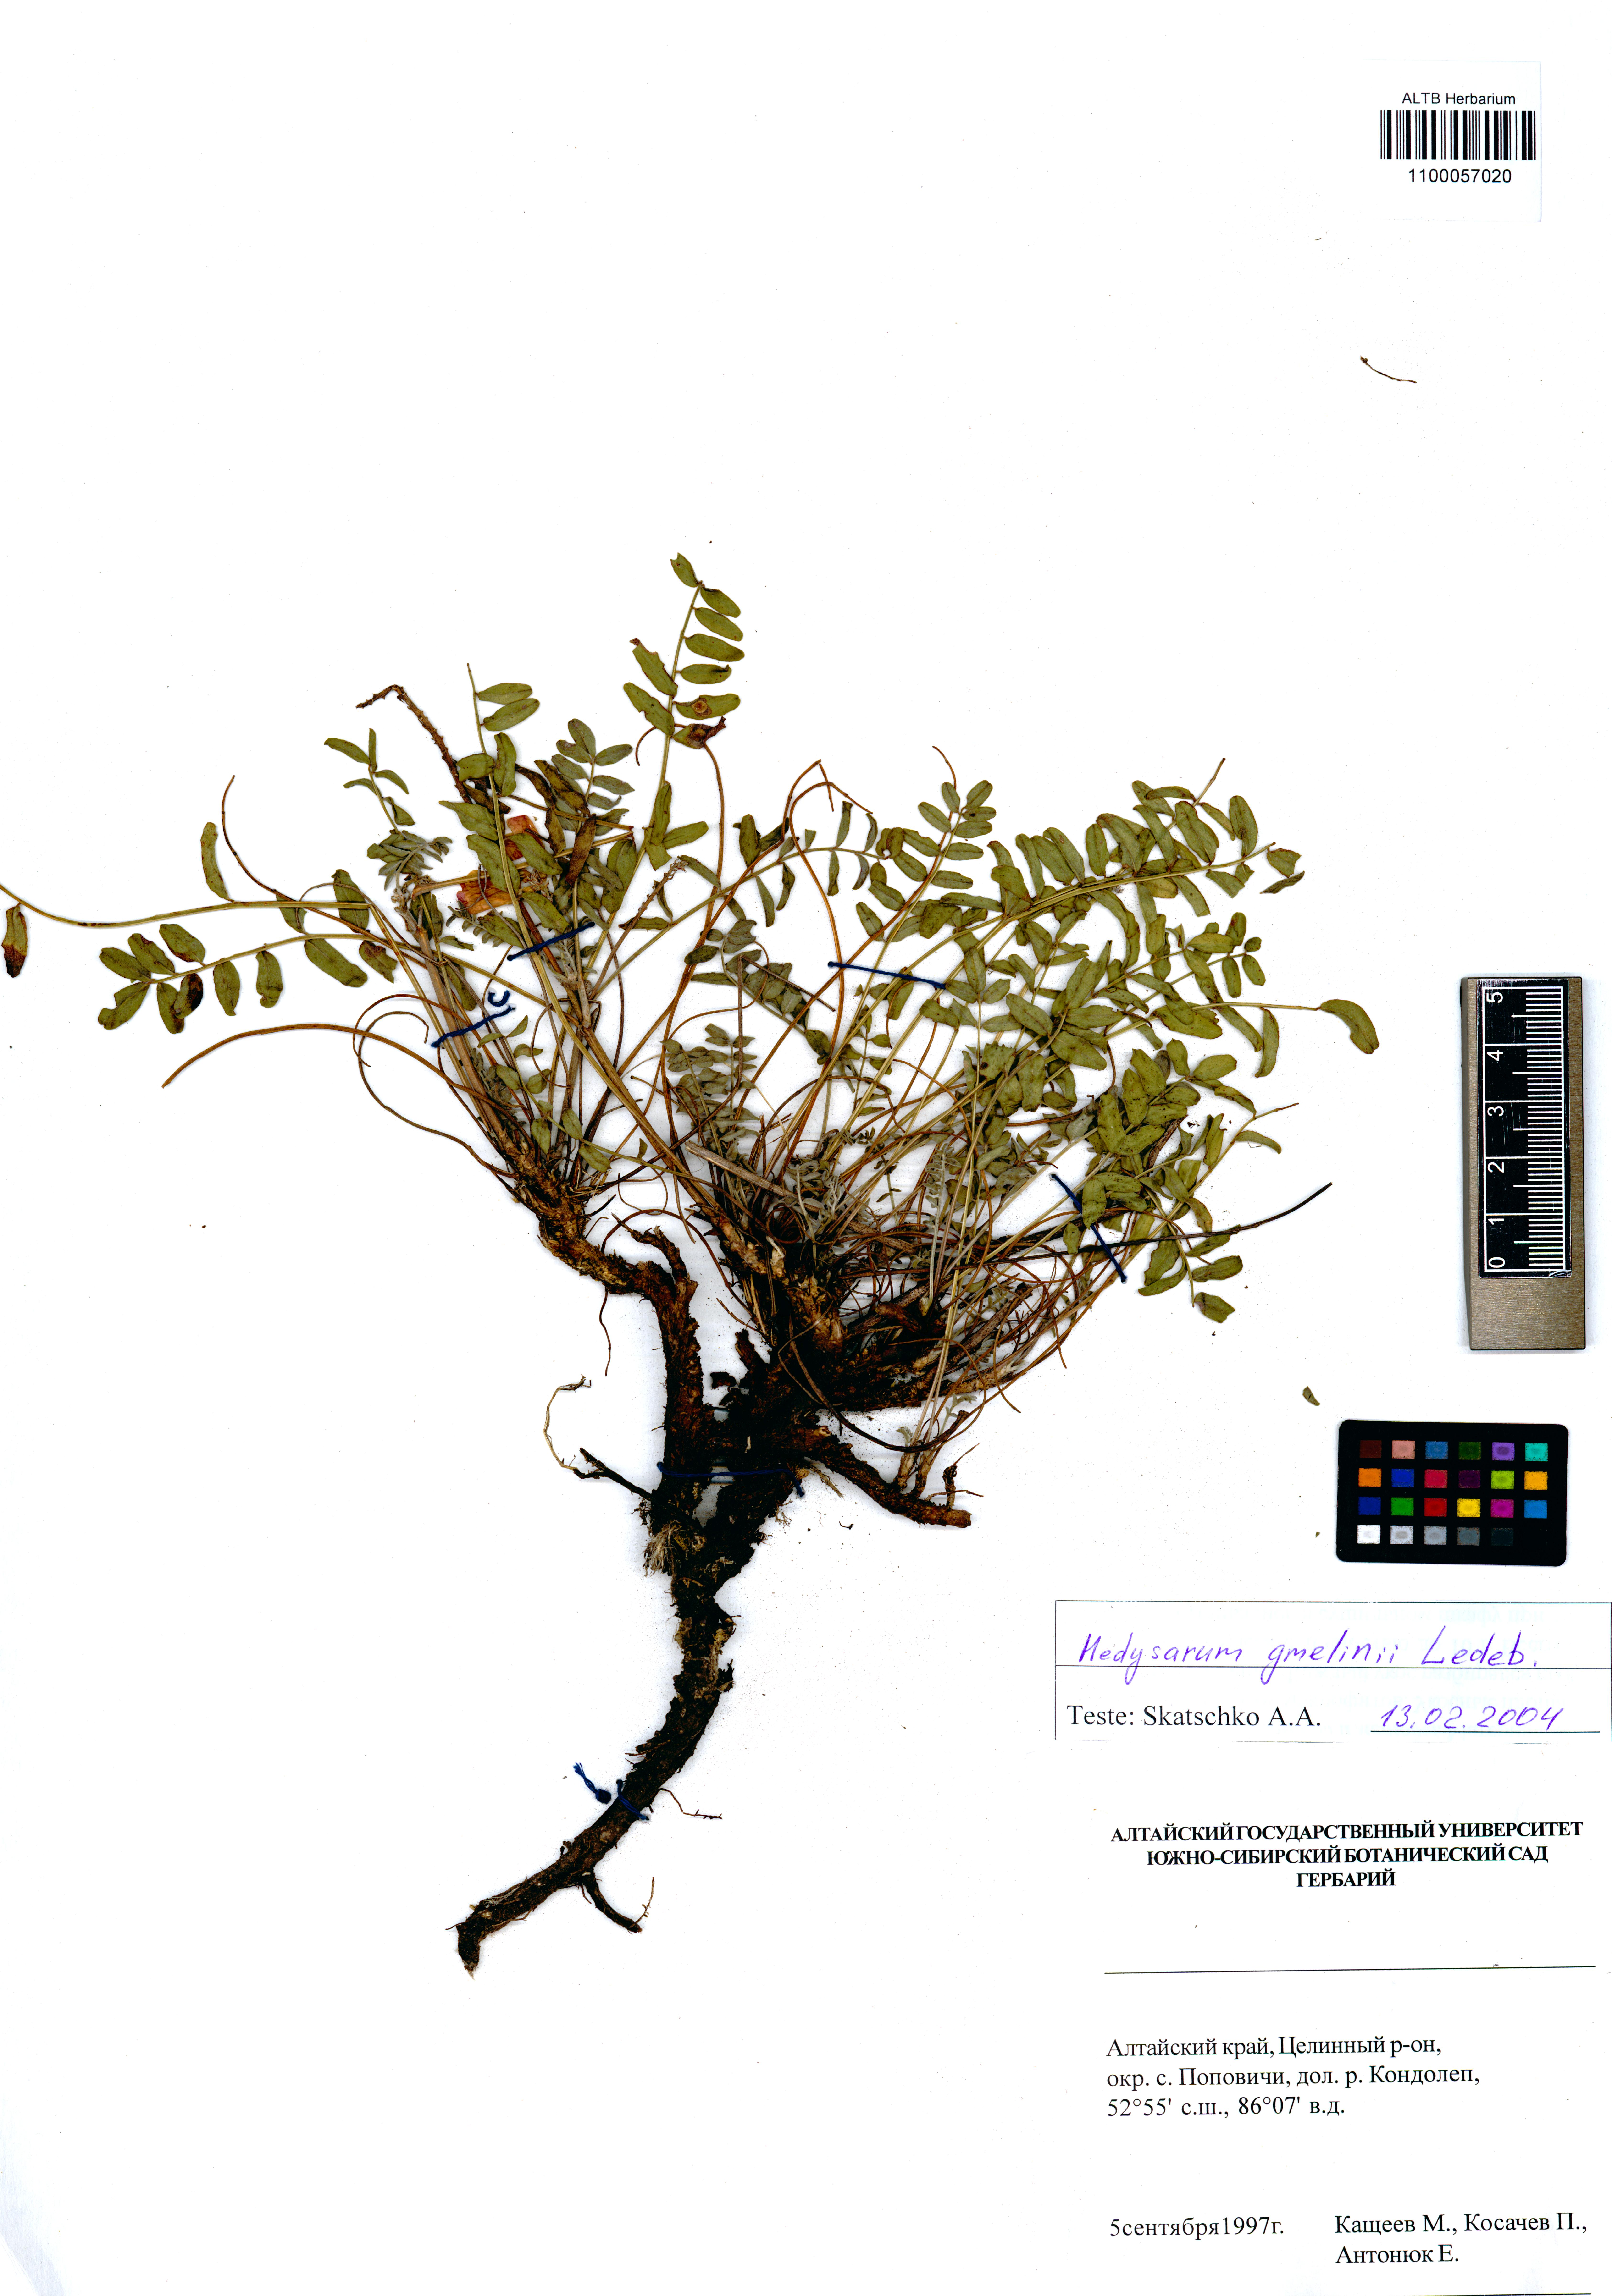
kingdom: Plantae
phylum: Tracheophyta
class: Magnoliopsida
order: Fabales
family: Fabaceae
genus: Hedysarum
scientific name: Hedysarum gmelinii
